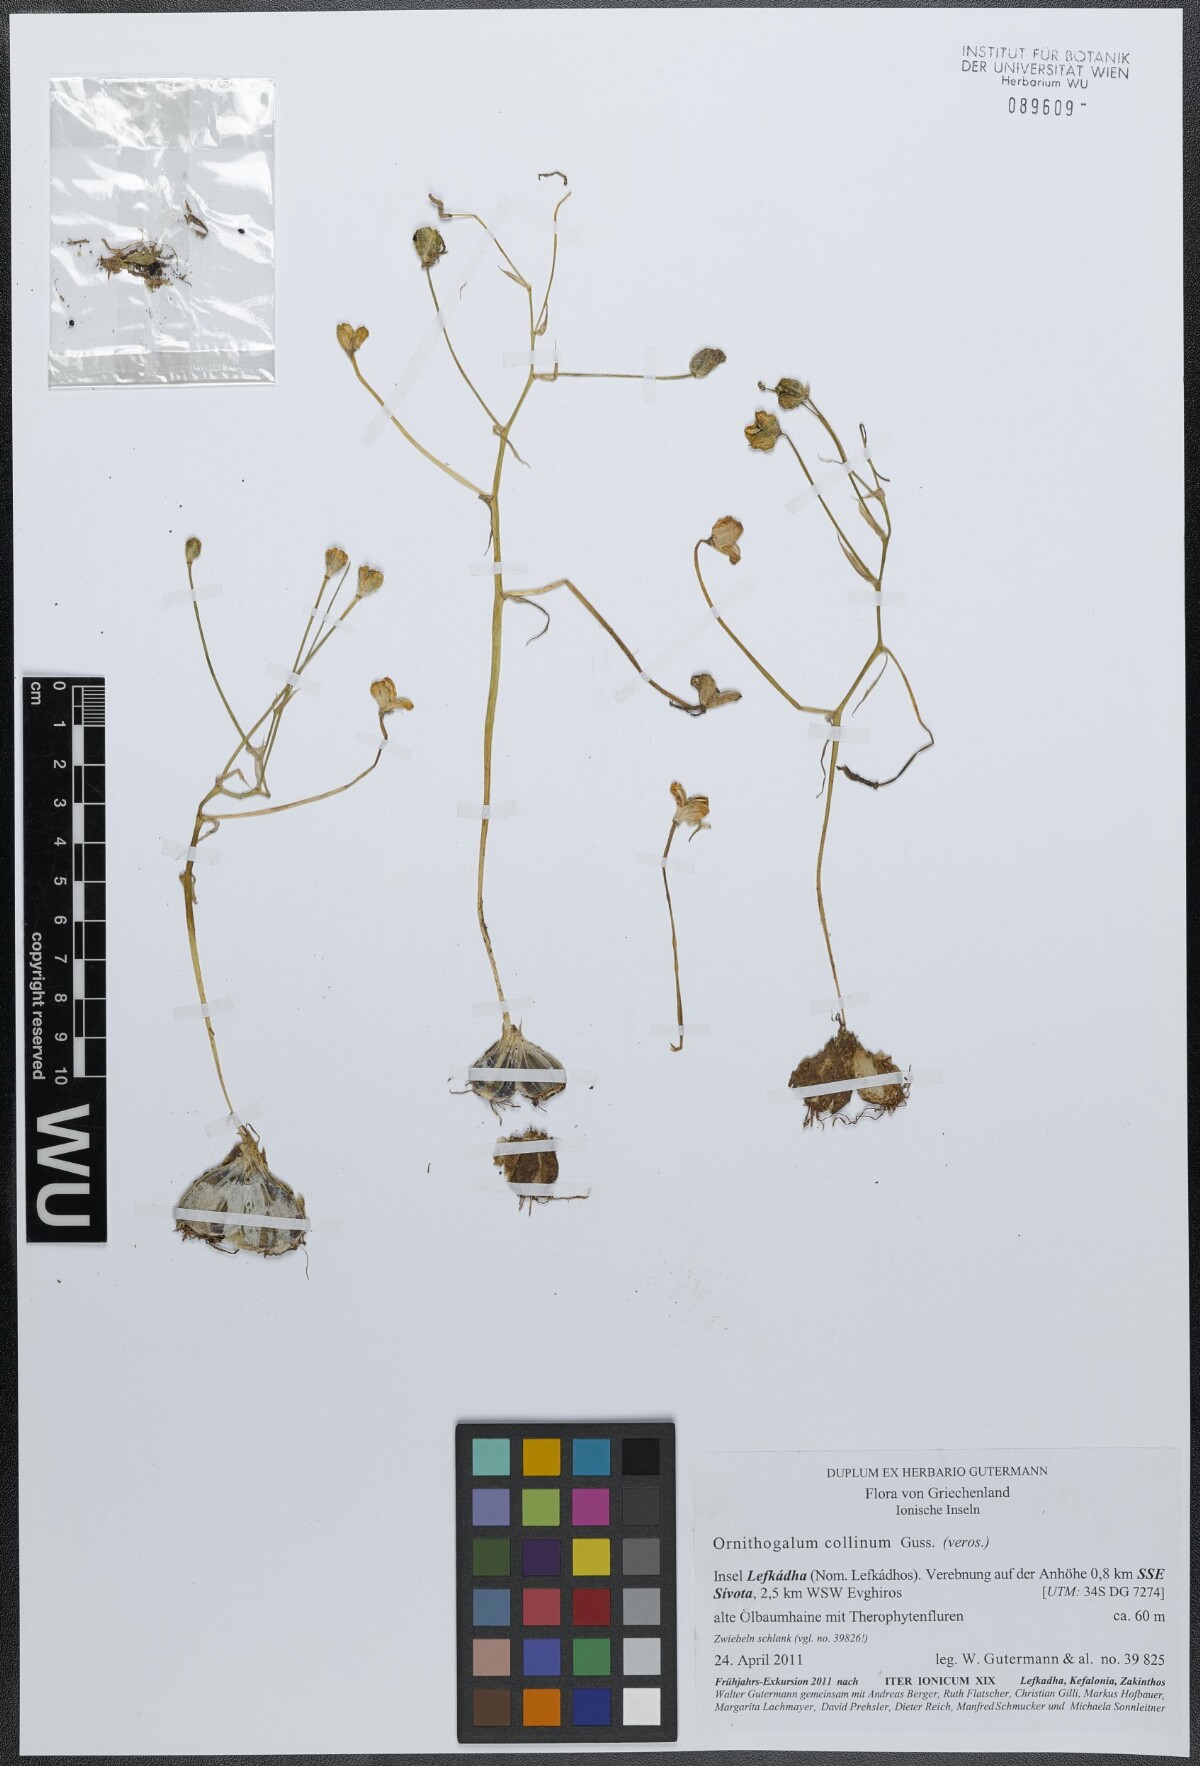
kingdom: Plantae
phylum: Tracheophyta
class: Liliopsida
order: Asparagales
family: Asparagaceae
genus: Ornithogalum
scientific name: Ornithogalum collinum
